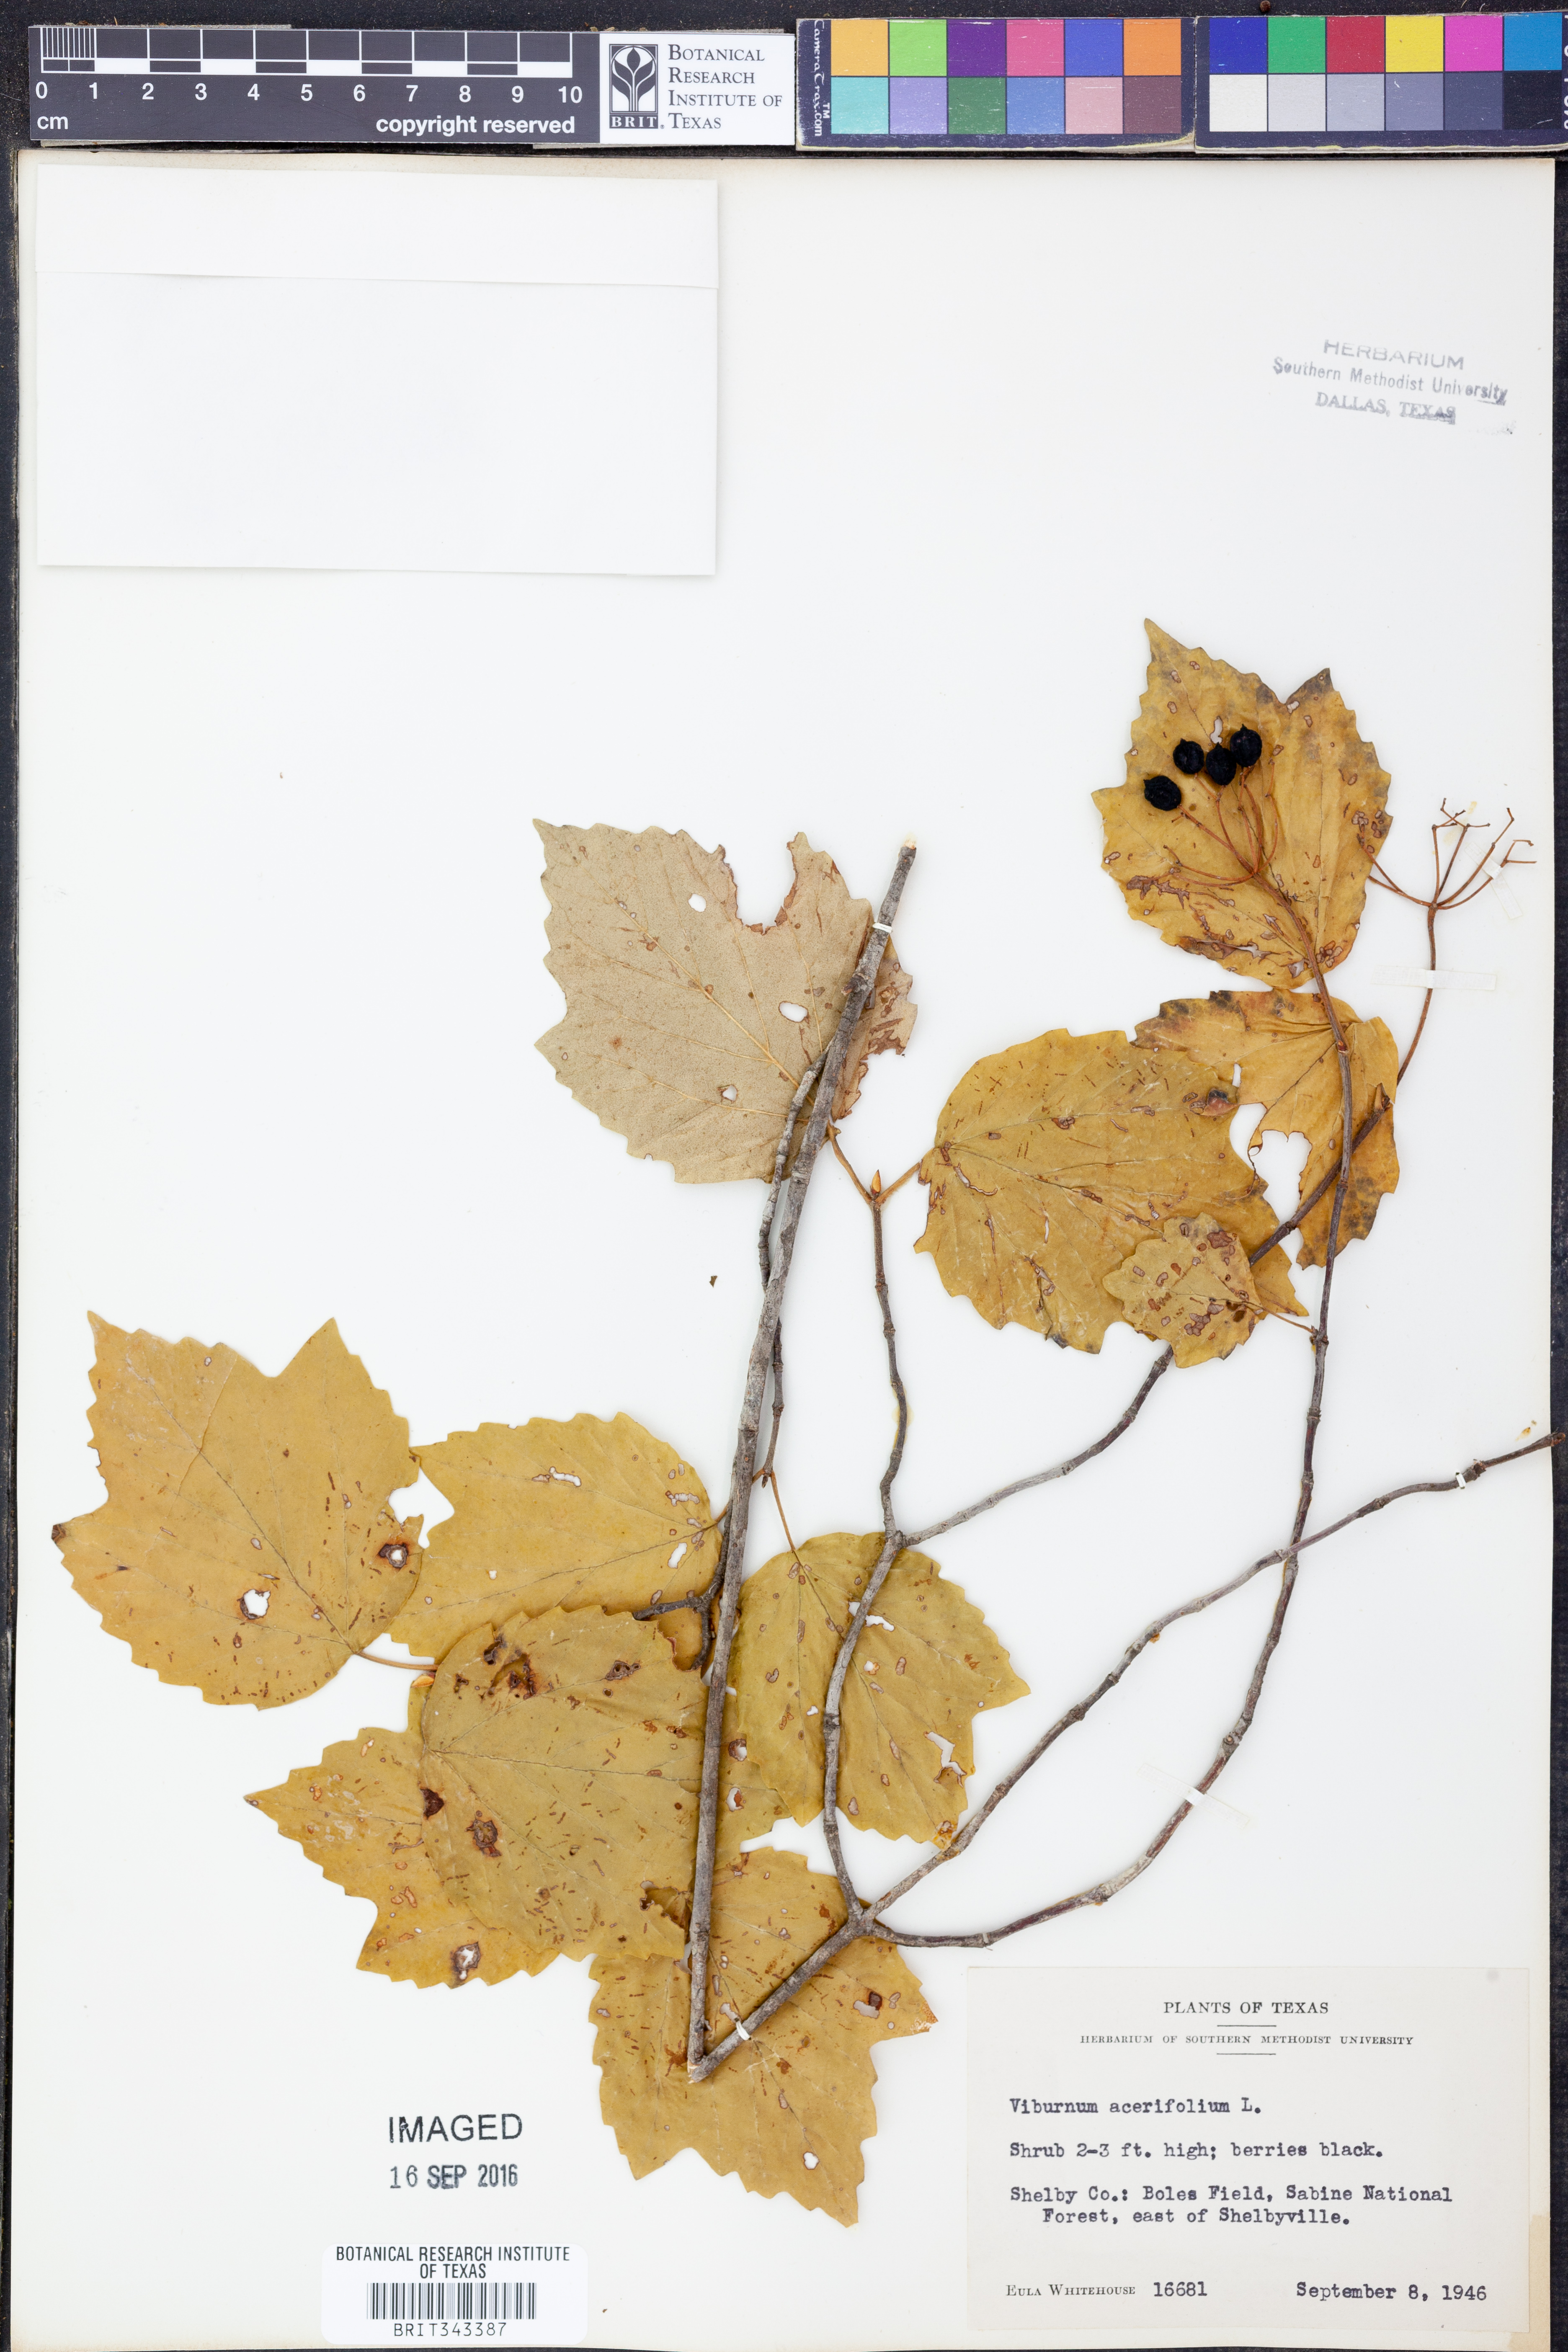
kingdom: Plantae
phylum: Tracheophyta
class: Magnoliopsida
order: Dipsacales
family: Viburnaceae
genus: Viburnum
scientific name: Viburnum acerifolium
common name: Dockmackie
